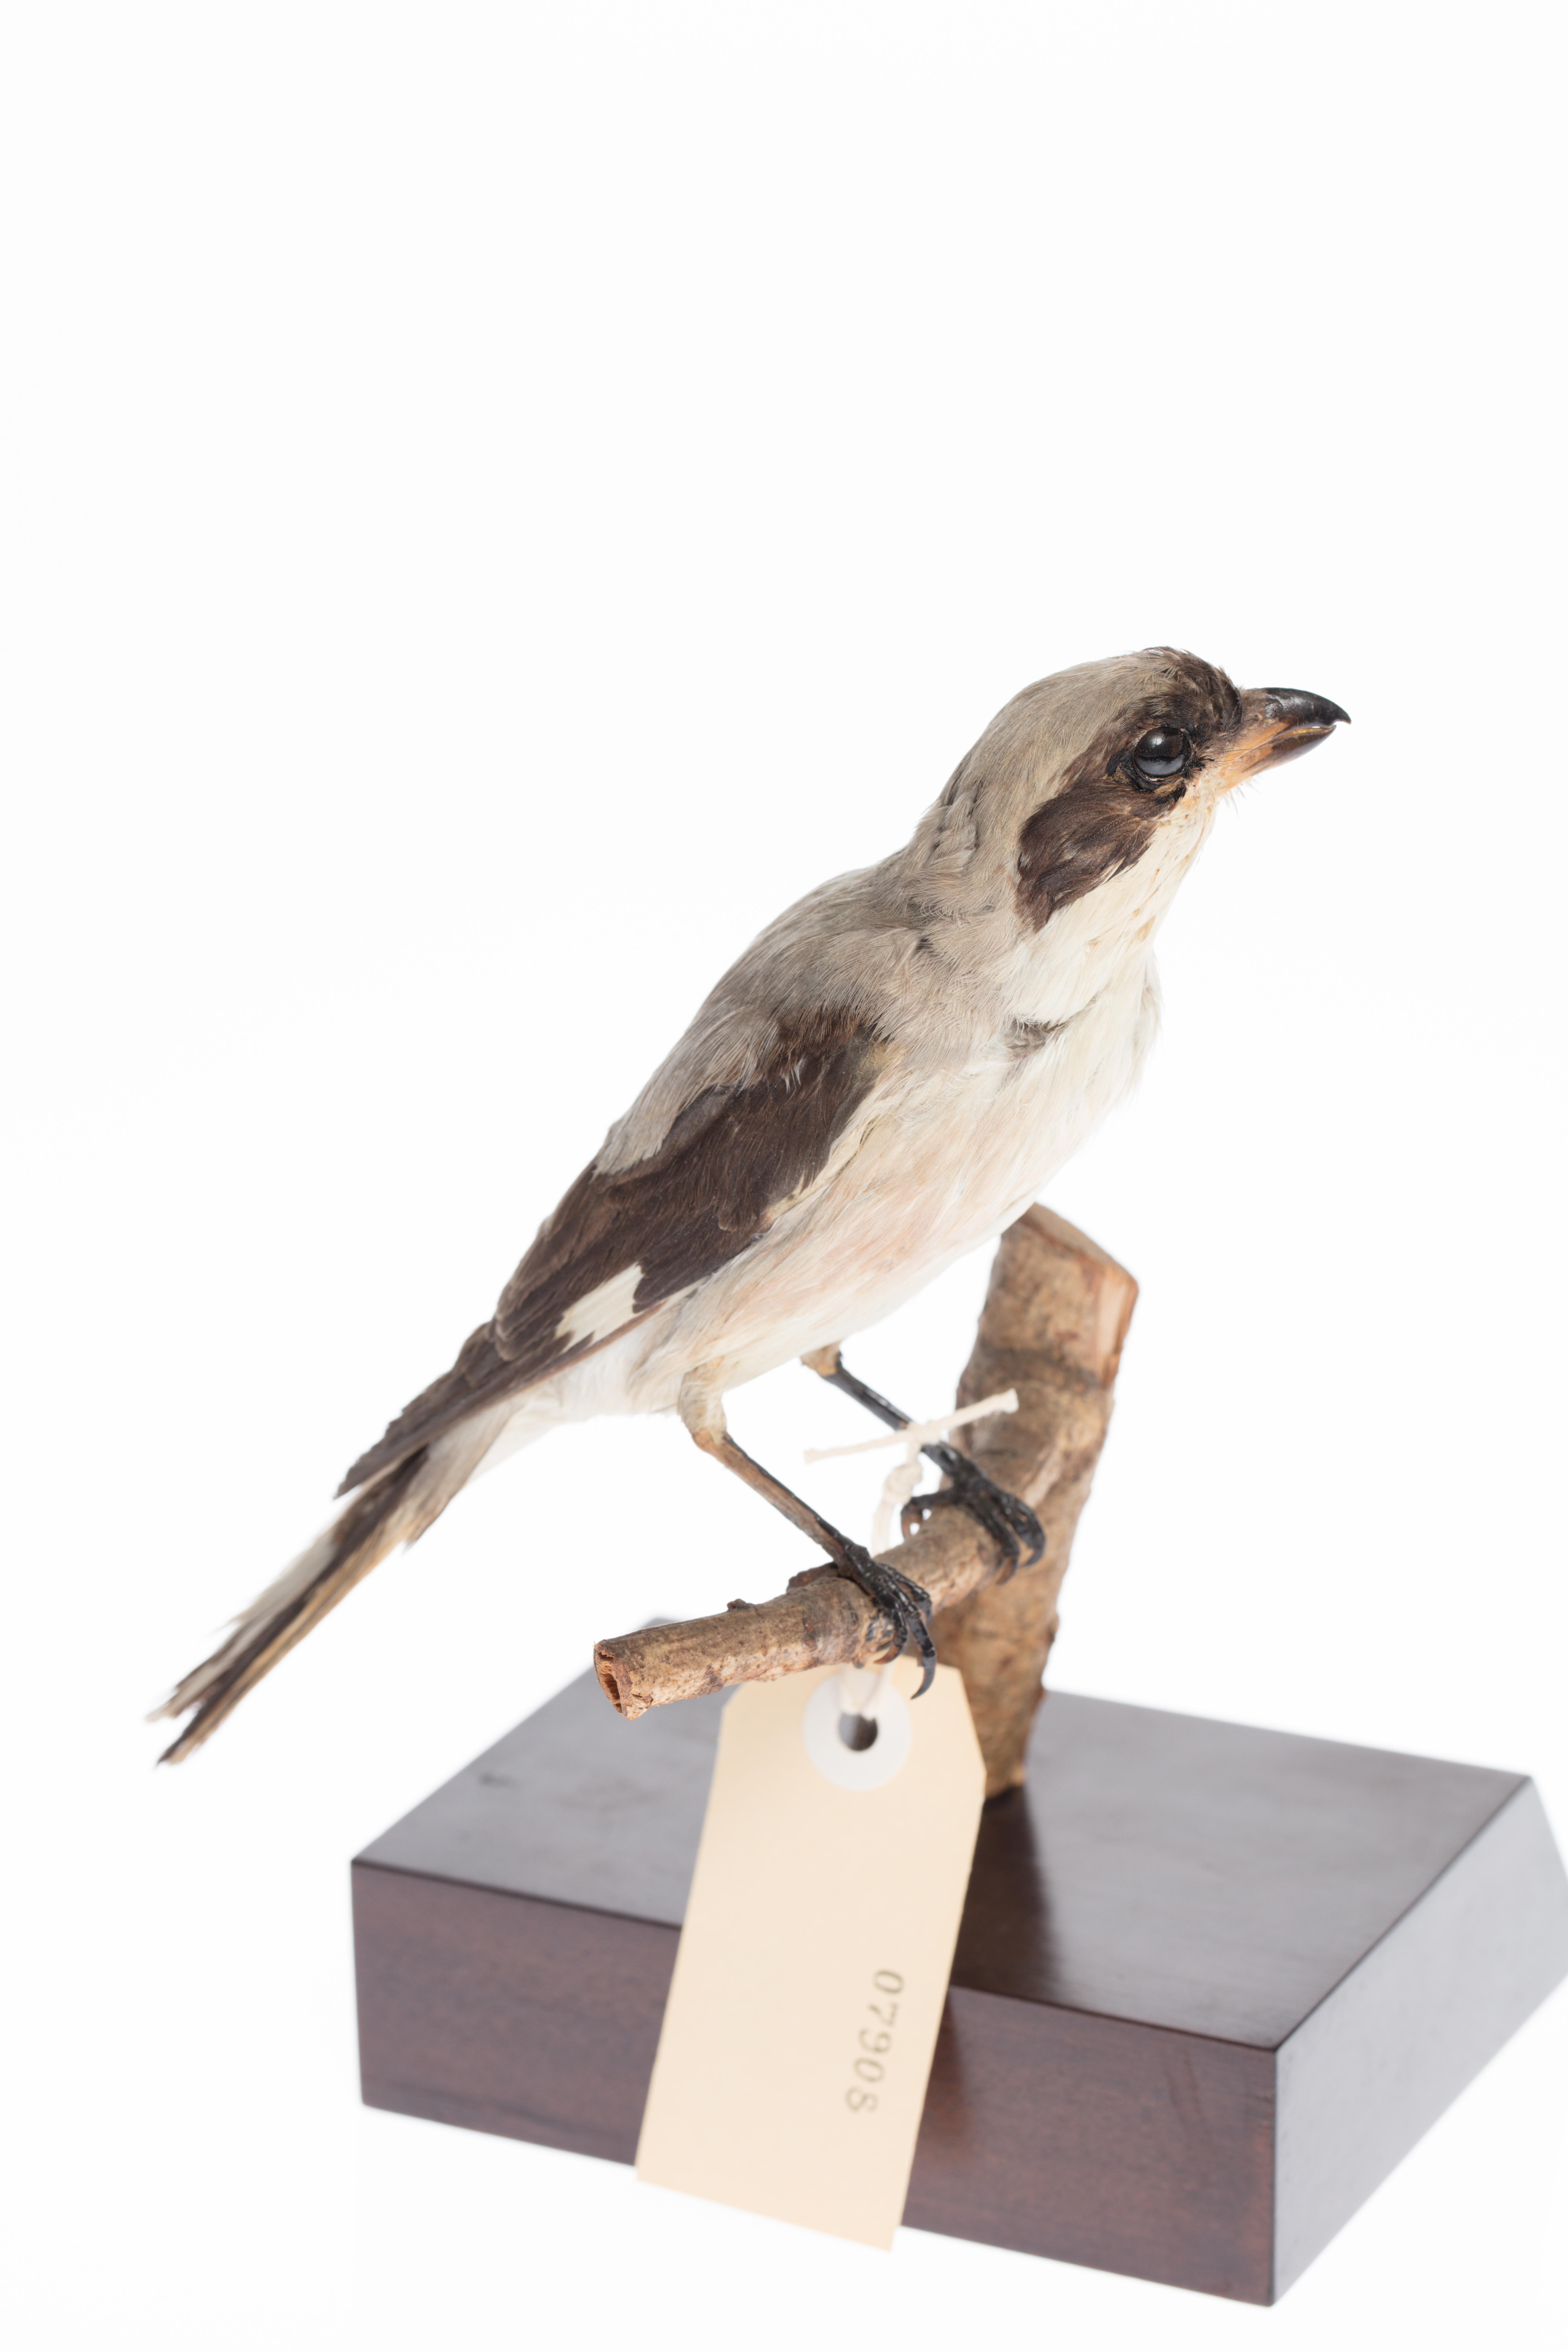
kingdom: Animalia
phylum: Chordata
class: Aves
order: Passeriformes
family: Laniidae
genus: Lanius
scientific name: Lanius minor
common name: Lesser grey shrike
